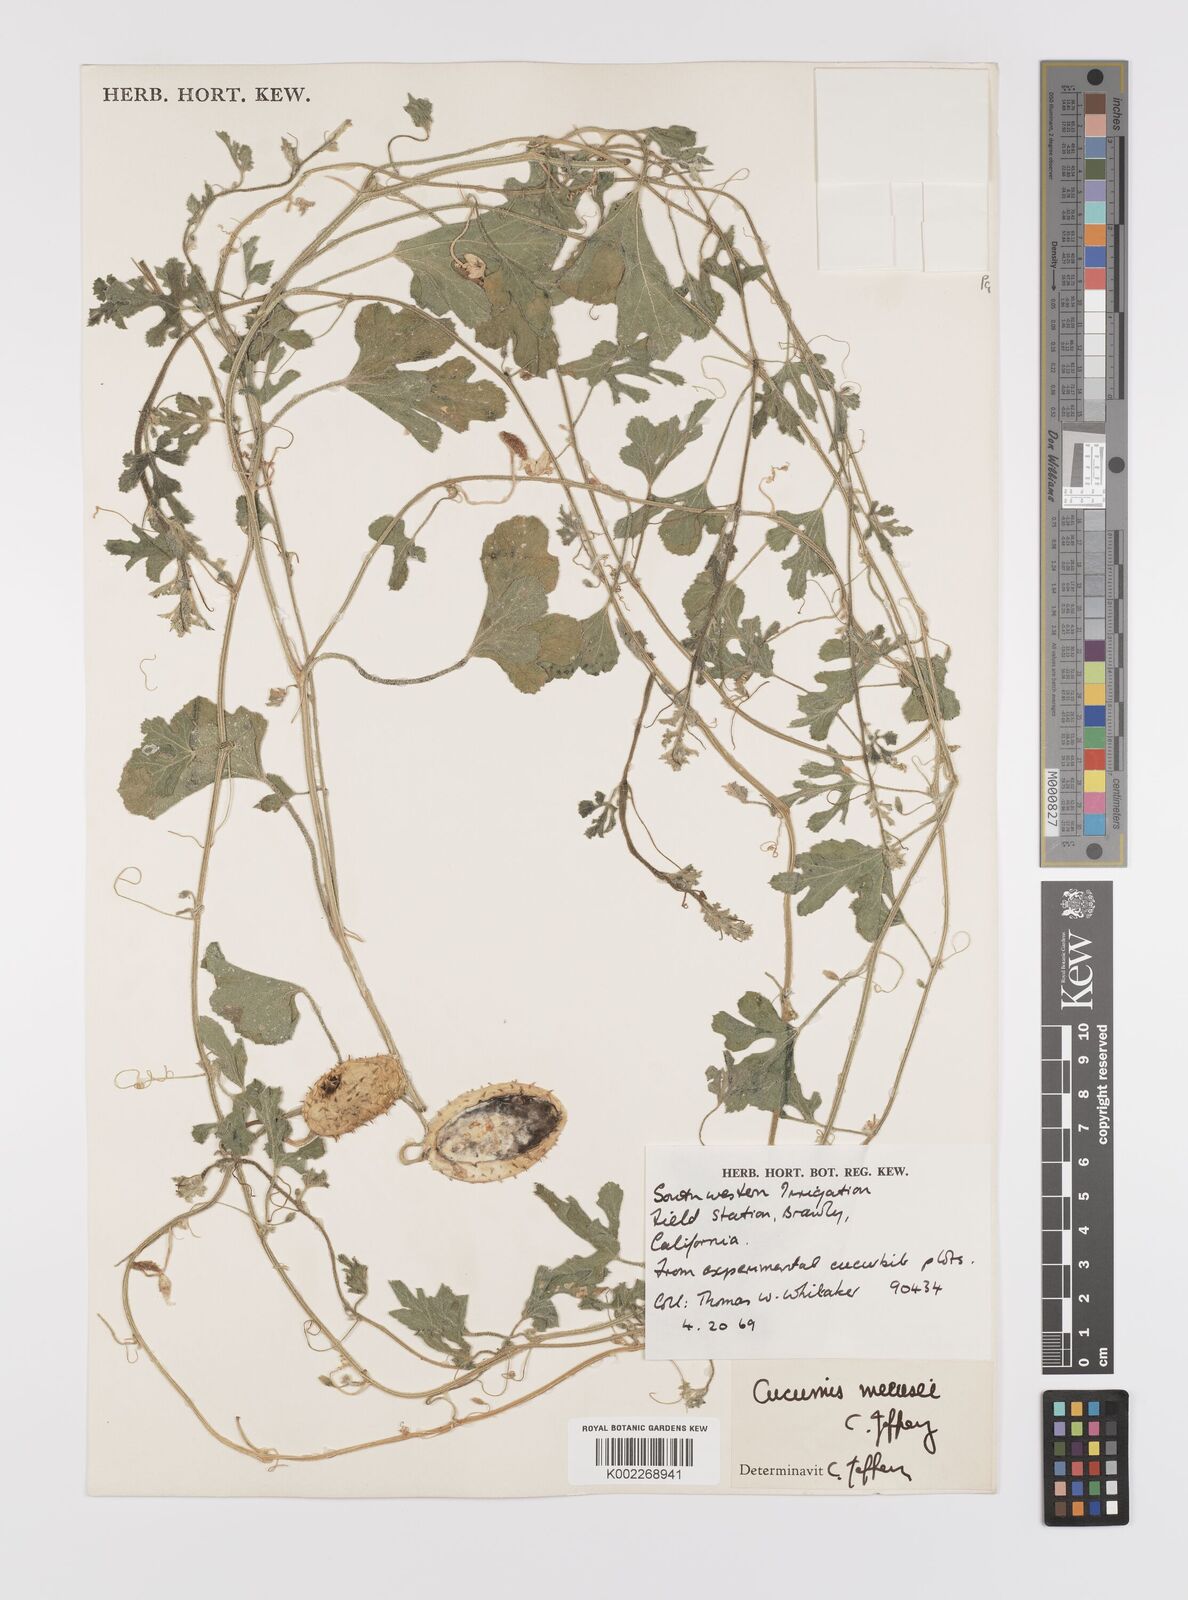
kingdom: Plantae
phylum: Tracheophyta
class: Magnoliopsida
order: Cucurbitales
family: Cucurbitaceae
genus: Cucumis
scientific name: Cucumis meeusei
